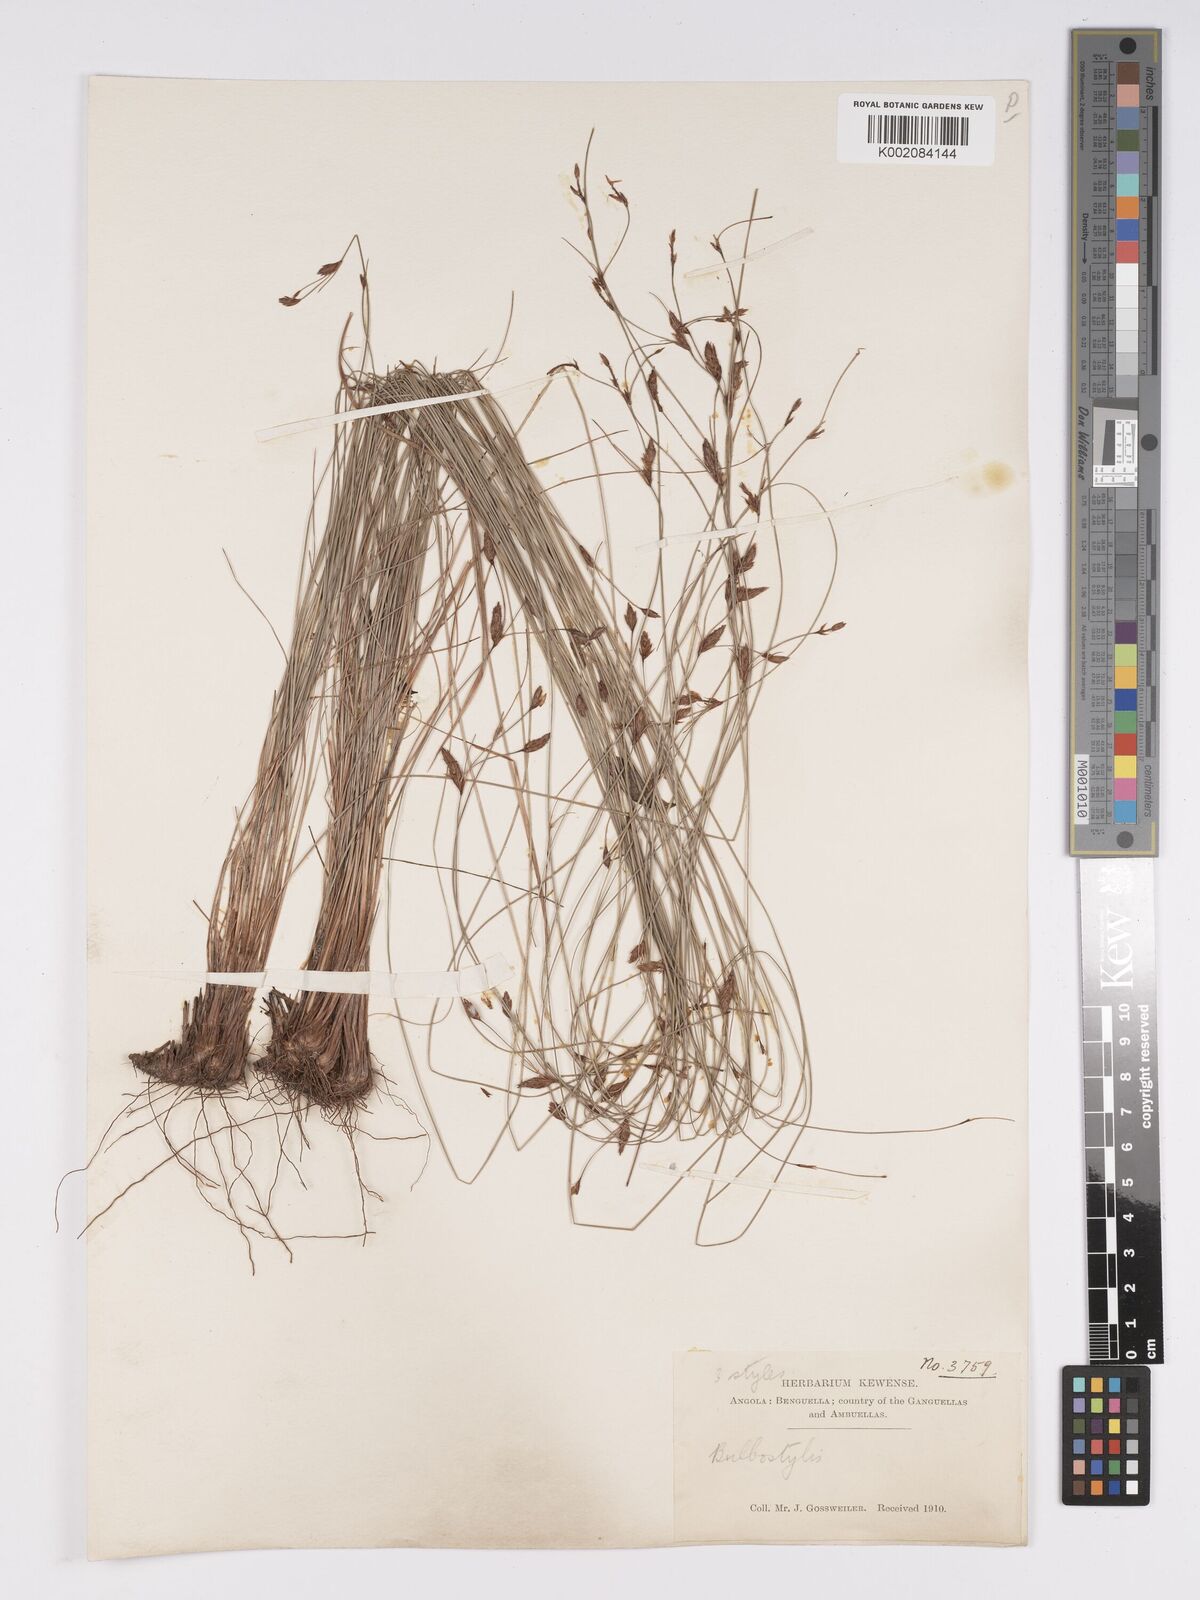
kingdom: Plantae
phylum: Tracheophyta
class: Liliopsida
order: Poales
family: Cyperaceae
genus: Bulbostylis
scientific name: Bulbostylis
